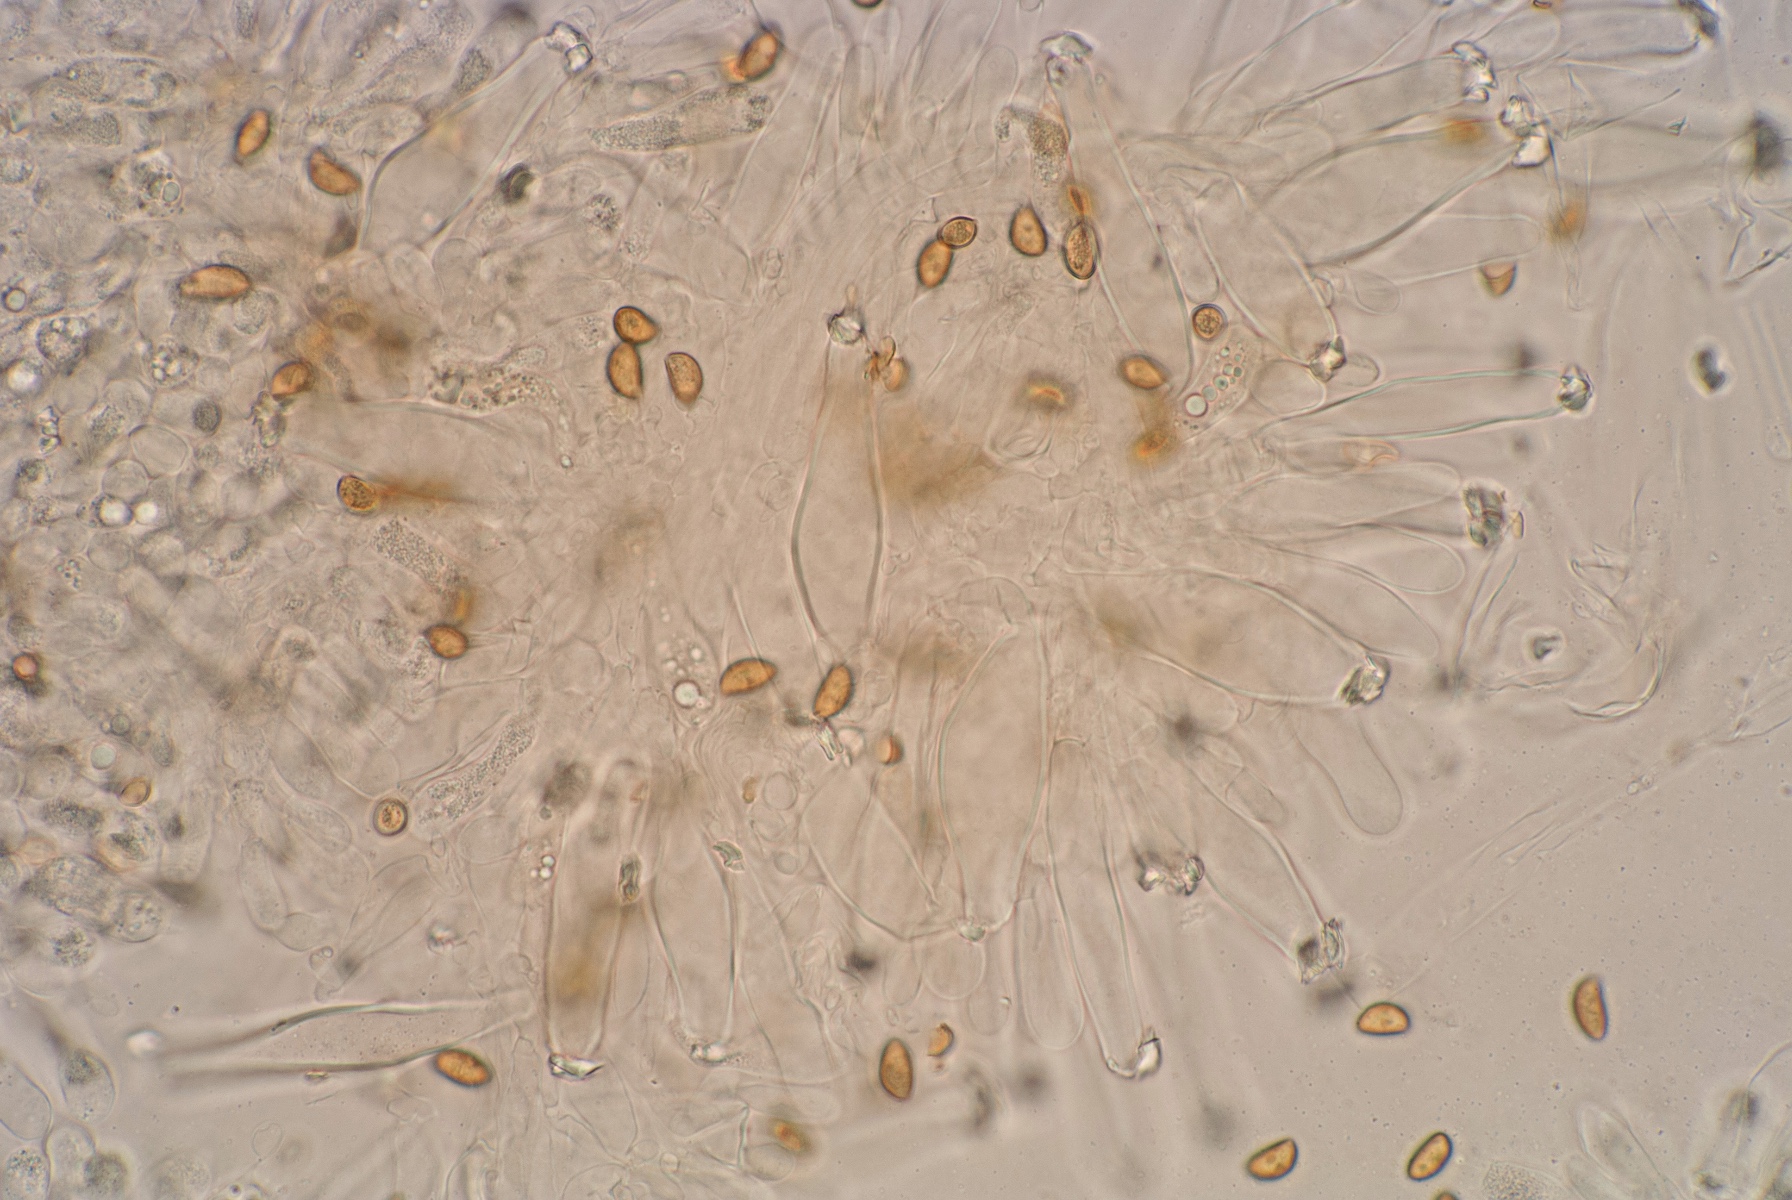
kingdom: Fungi
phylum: Basidiomycota
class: Agaricomycetes
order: Agaricales
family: Inocybaceae
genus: Inocybe
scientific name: Inocybe griseovelata
